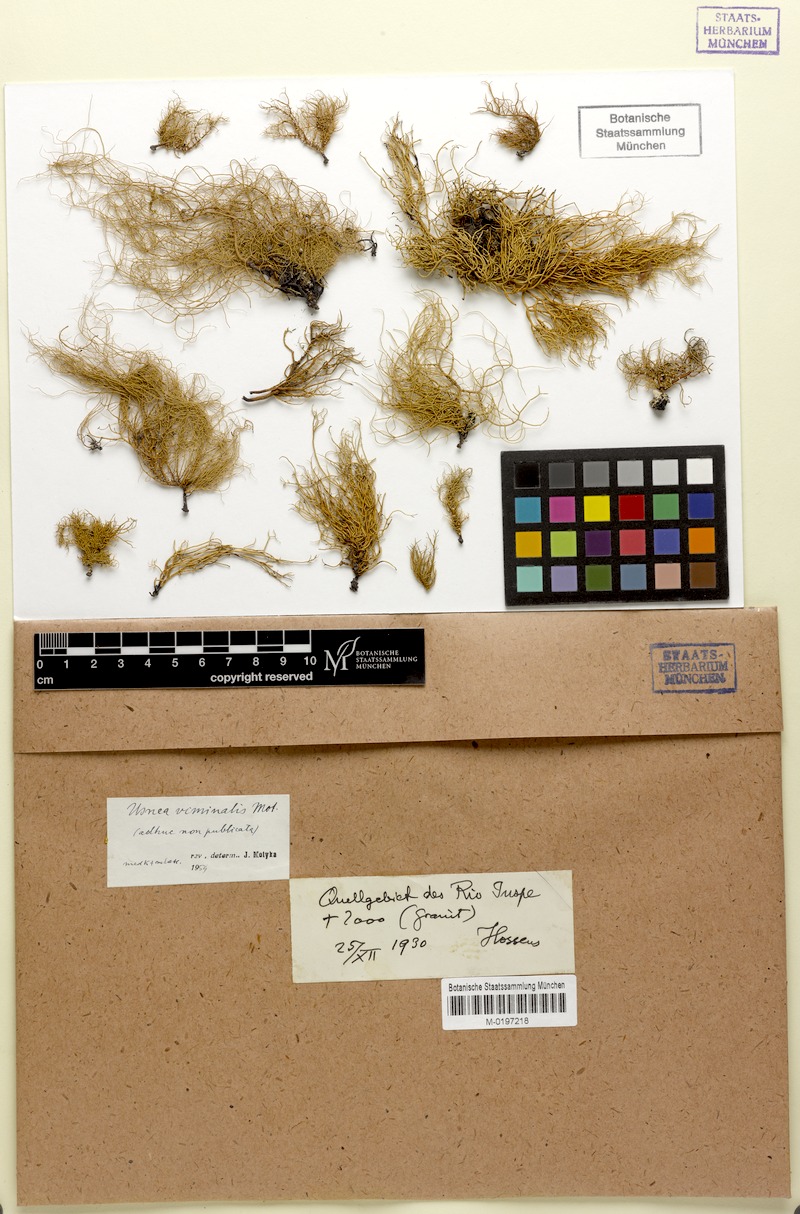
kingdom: Fungi
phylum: Ascomycota
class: Lecanoromycetes
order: Lecanorales
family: Parmeliaceae
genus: Usnea
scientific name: Usnea
